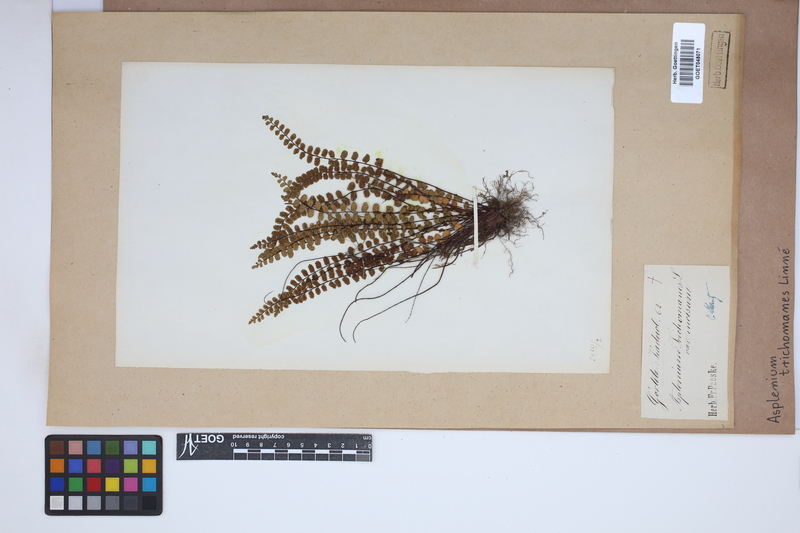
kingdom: Plantae
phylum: Tracheophyta
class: Polypodiopsida
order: Polypodiales
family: Aspleniaceae
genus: Asplenium
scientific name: Asplenium trichomanes
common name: Maidenhair spleenwort
